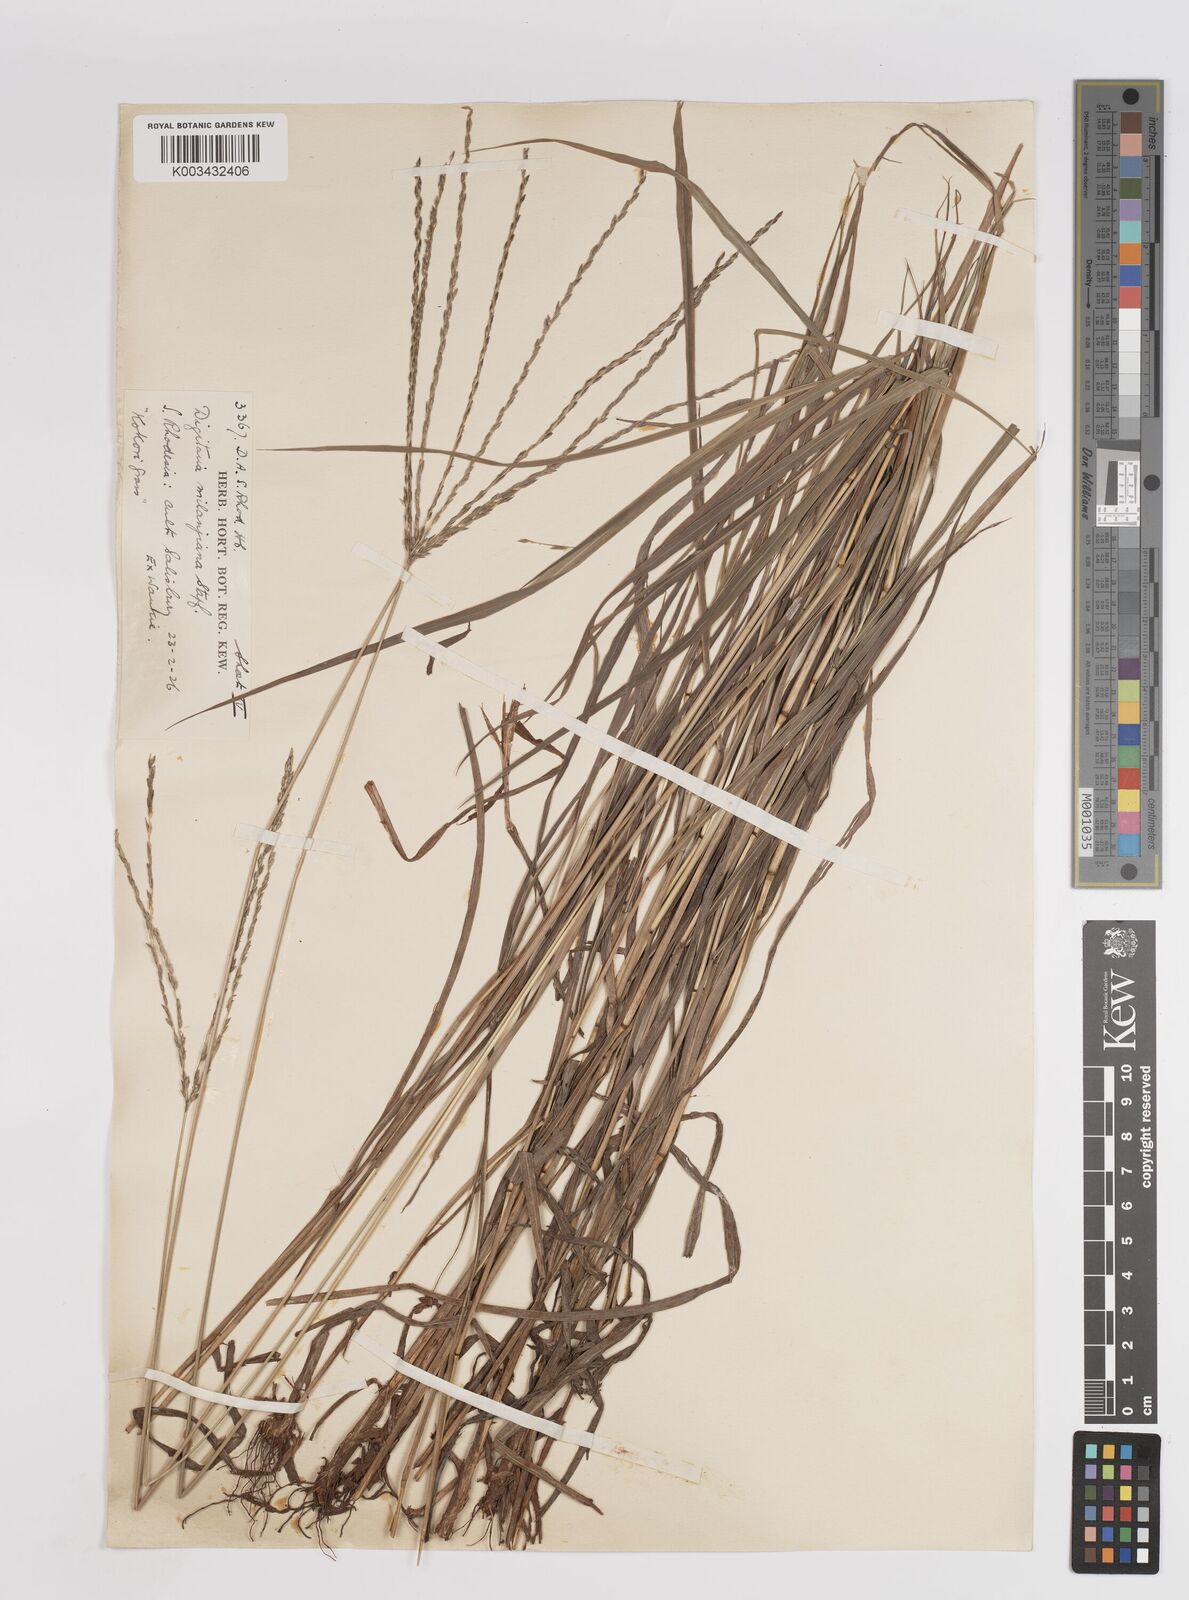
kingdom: Plantae
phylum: Tracheophyta
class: Liliopsida
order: Poales
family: Poaceae
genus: Digitaria
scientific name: Digitaria eriantha
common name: Digitgrass
